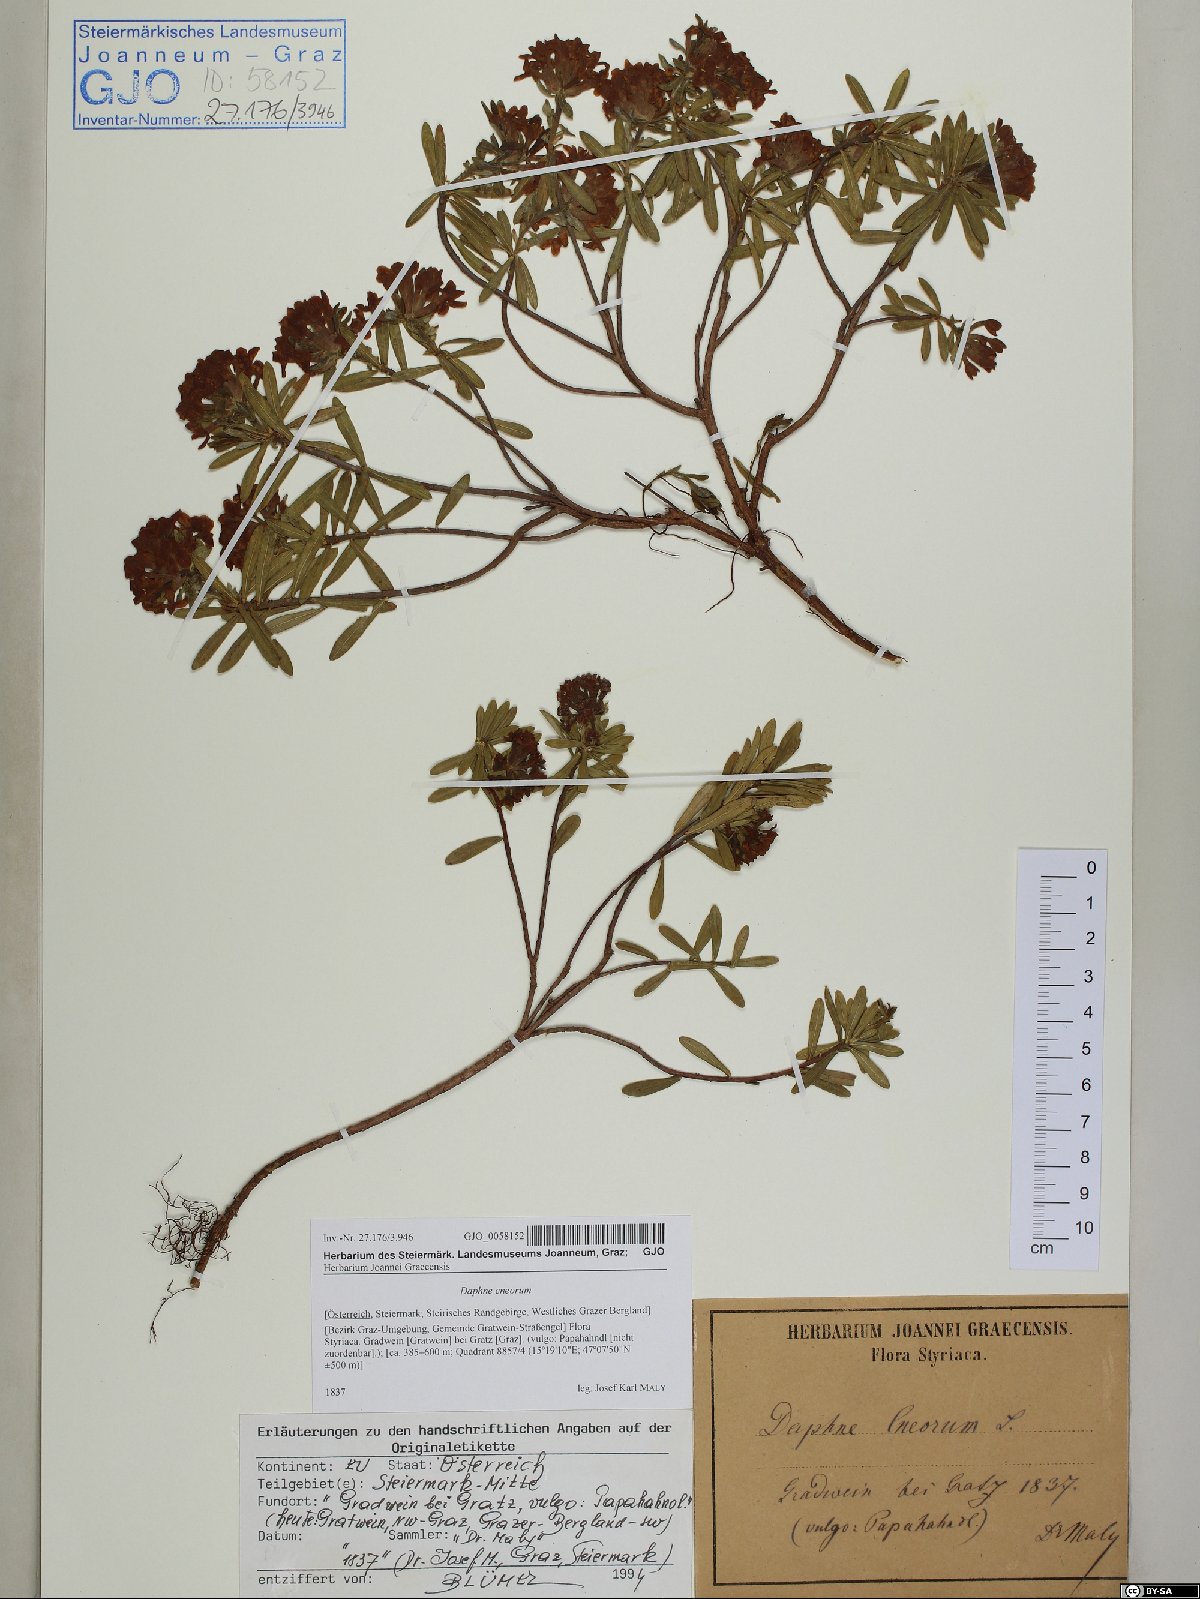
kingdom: Plantae
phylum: Tracheophyta
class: Magnoliopsida
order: Malvales
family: Thymelaeaceae
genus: Daphne
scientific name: Daphne cneorum
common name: Garland-flower
